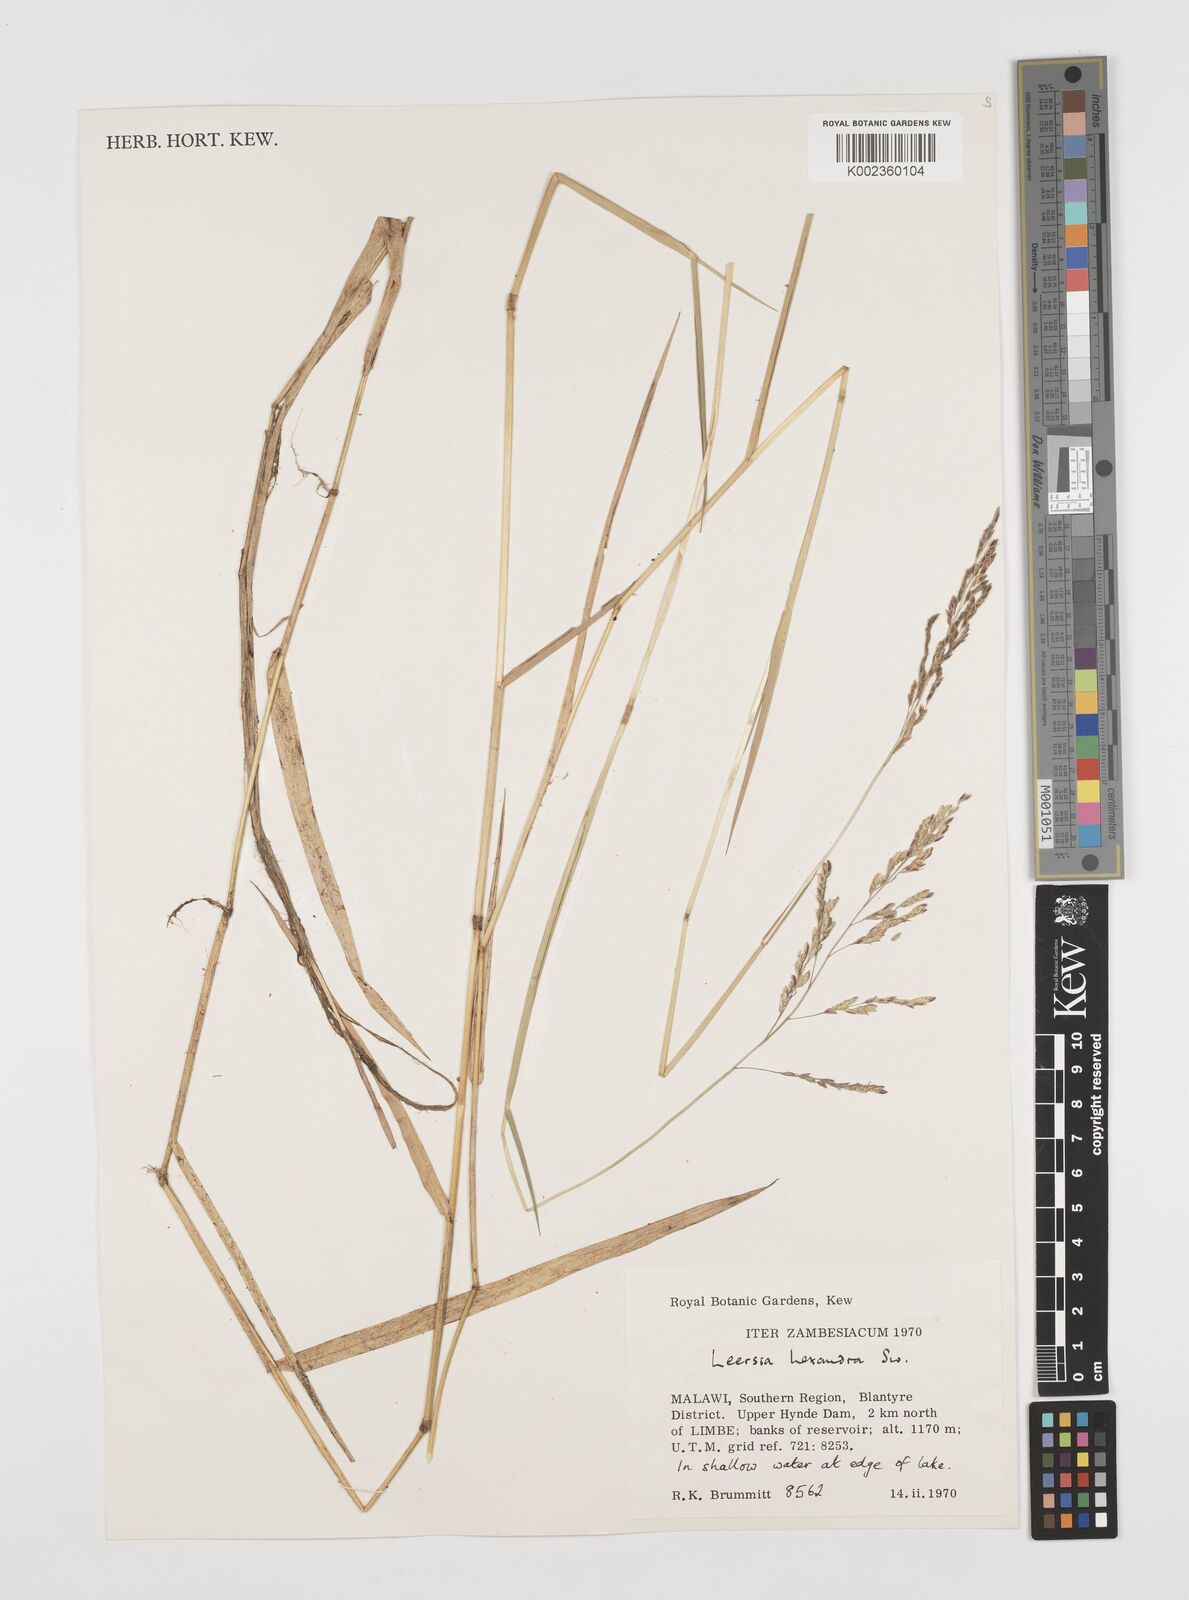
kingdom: Plantae
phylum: Tracheophyta
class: Liliopsida
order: Poales
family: Poaceae
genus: Leersia
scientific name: Leersia hexandra
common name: Southern cut grass
